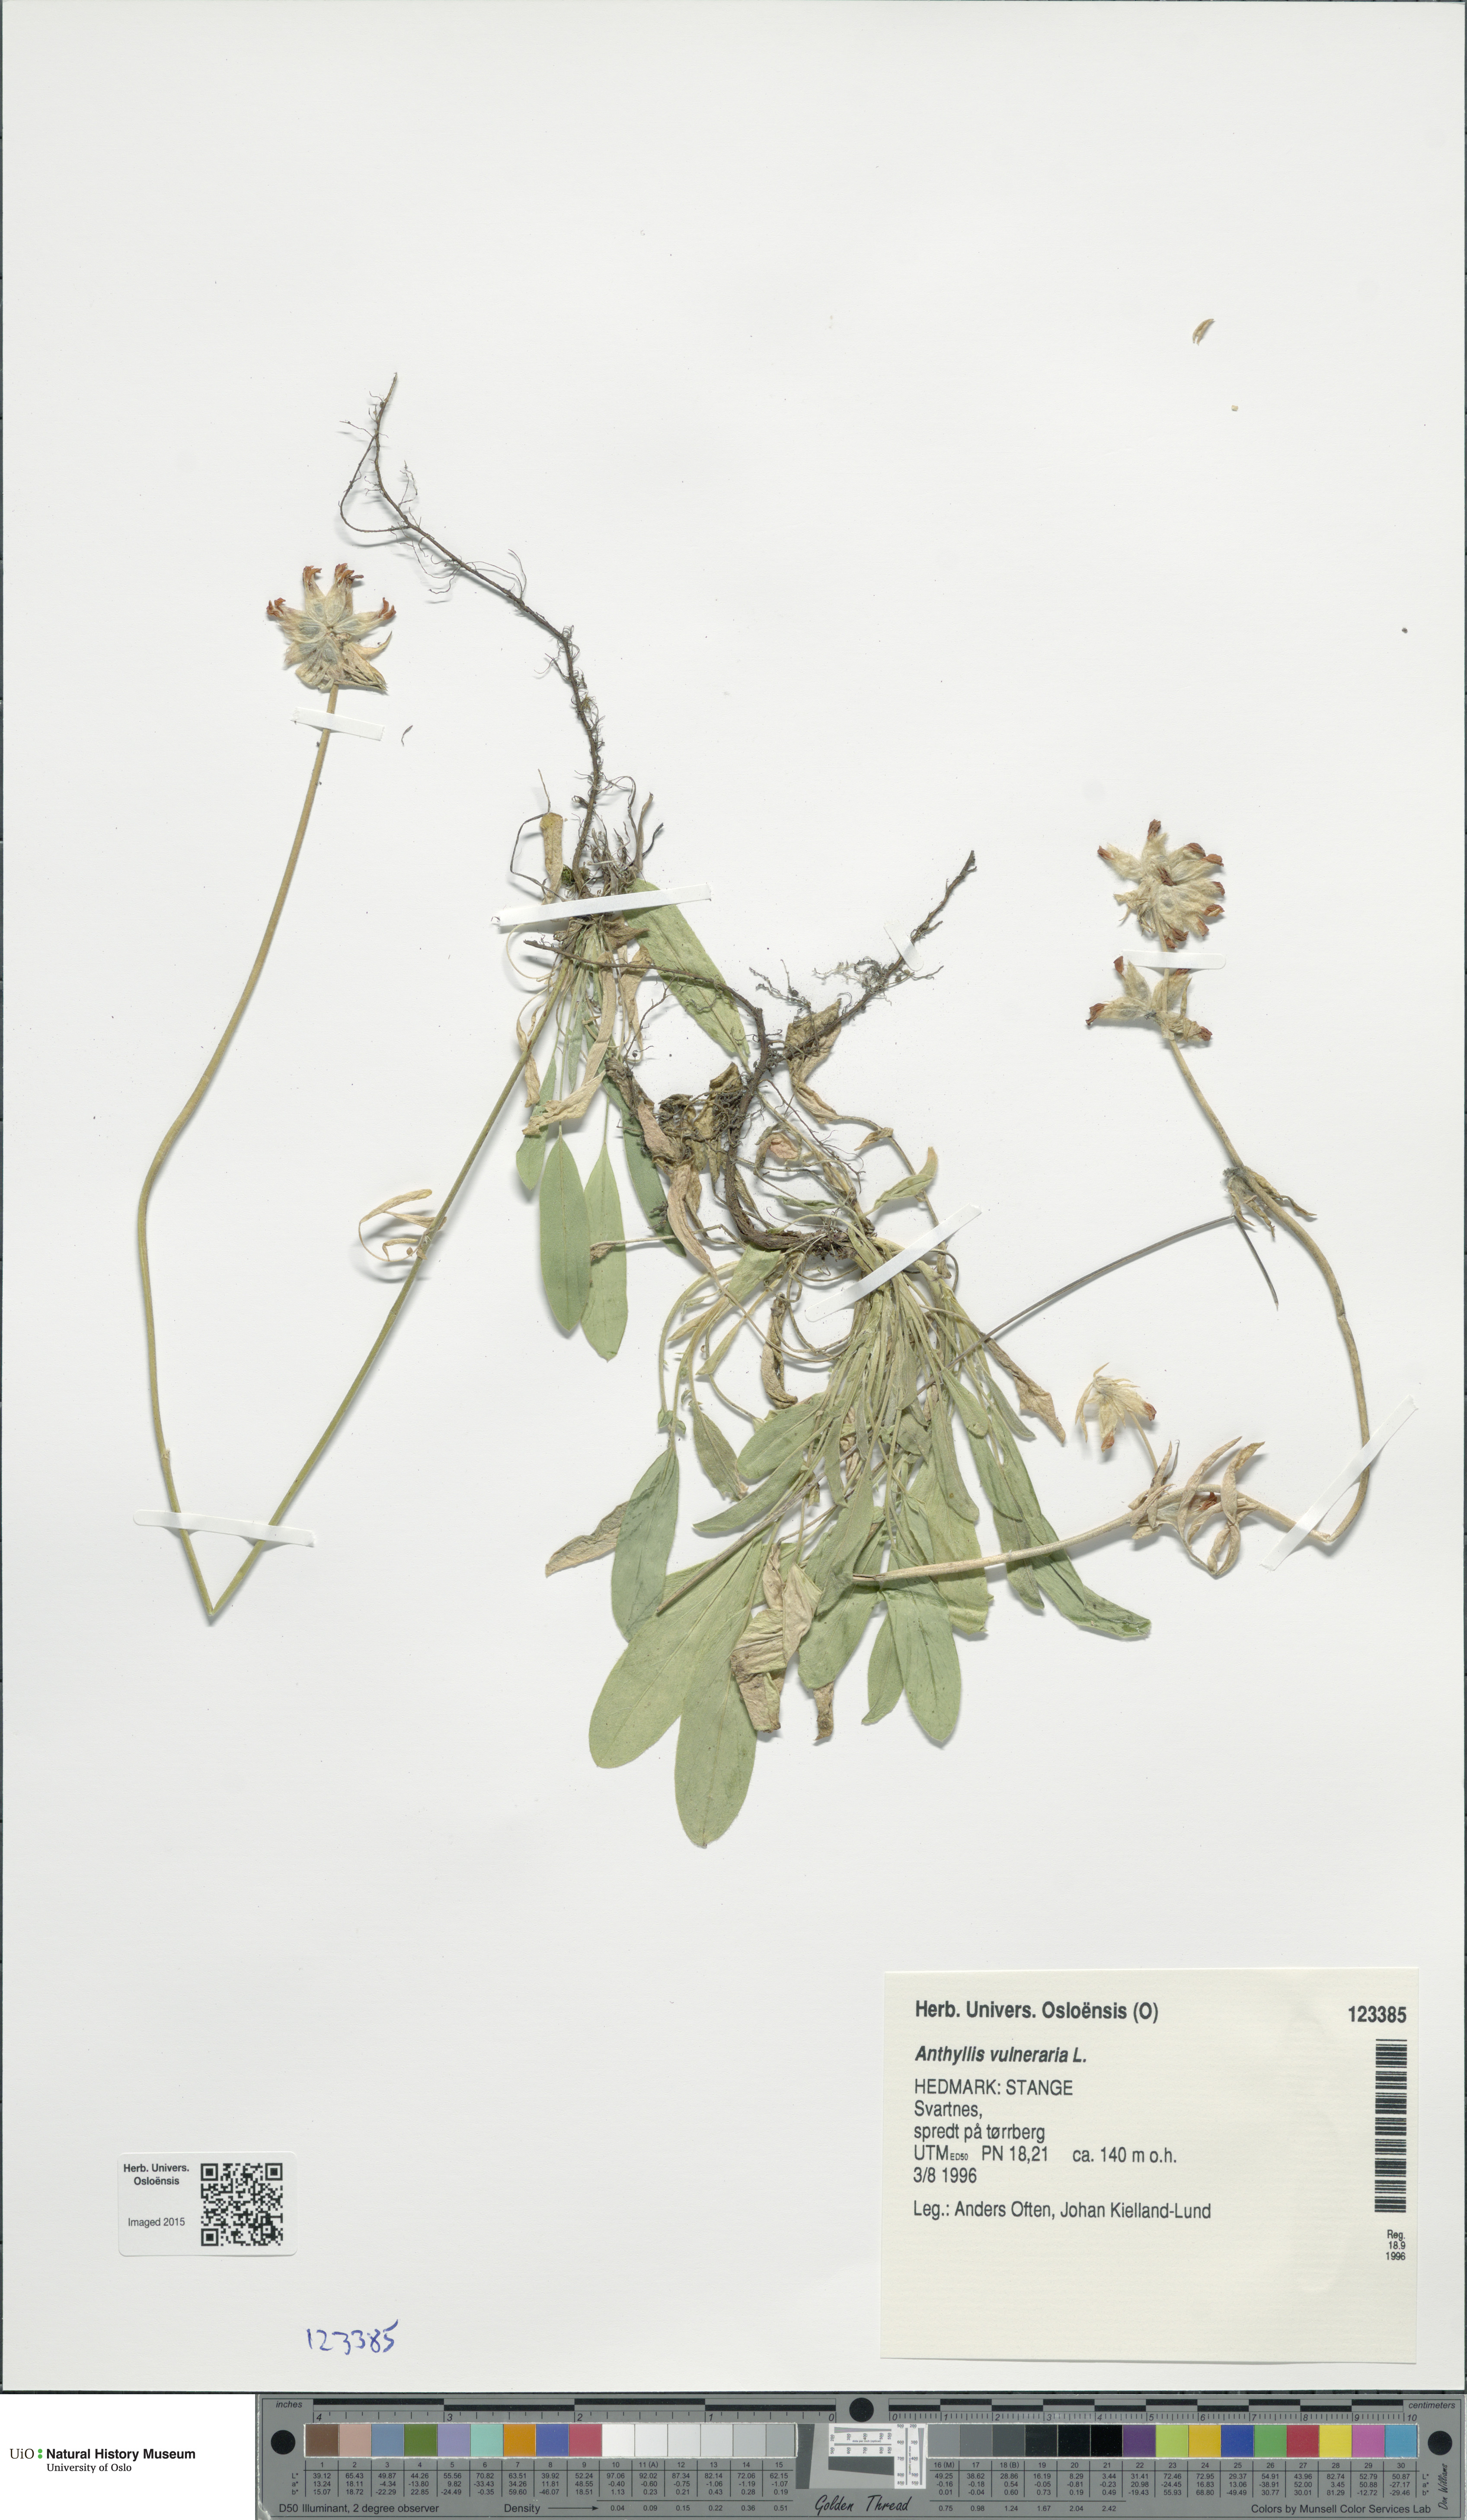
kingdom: Plantae
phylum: Tracheophyta
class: Magnoliopsida
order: Fabales
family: Fabaceae
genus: Anthyllis
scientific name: Anthyllis vulneraria
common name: Kidney vetch
